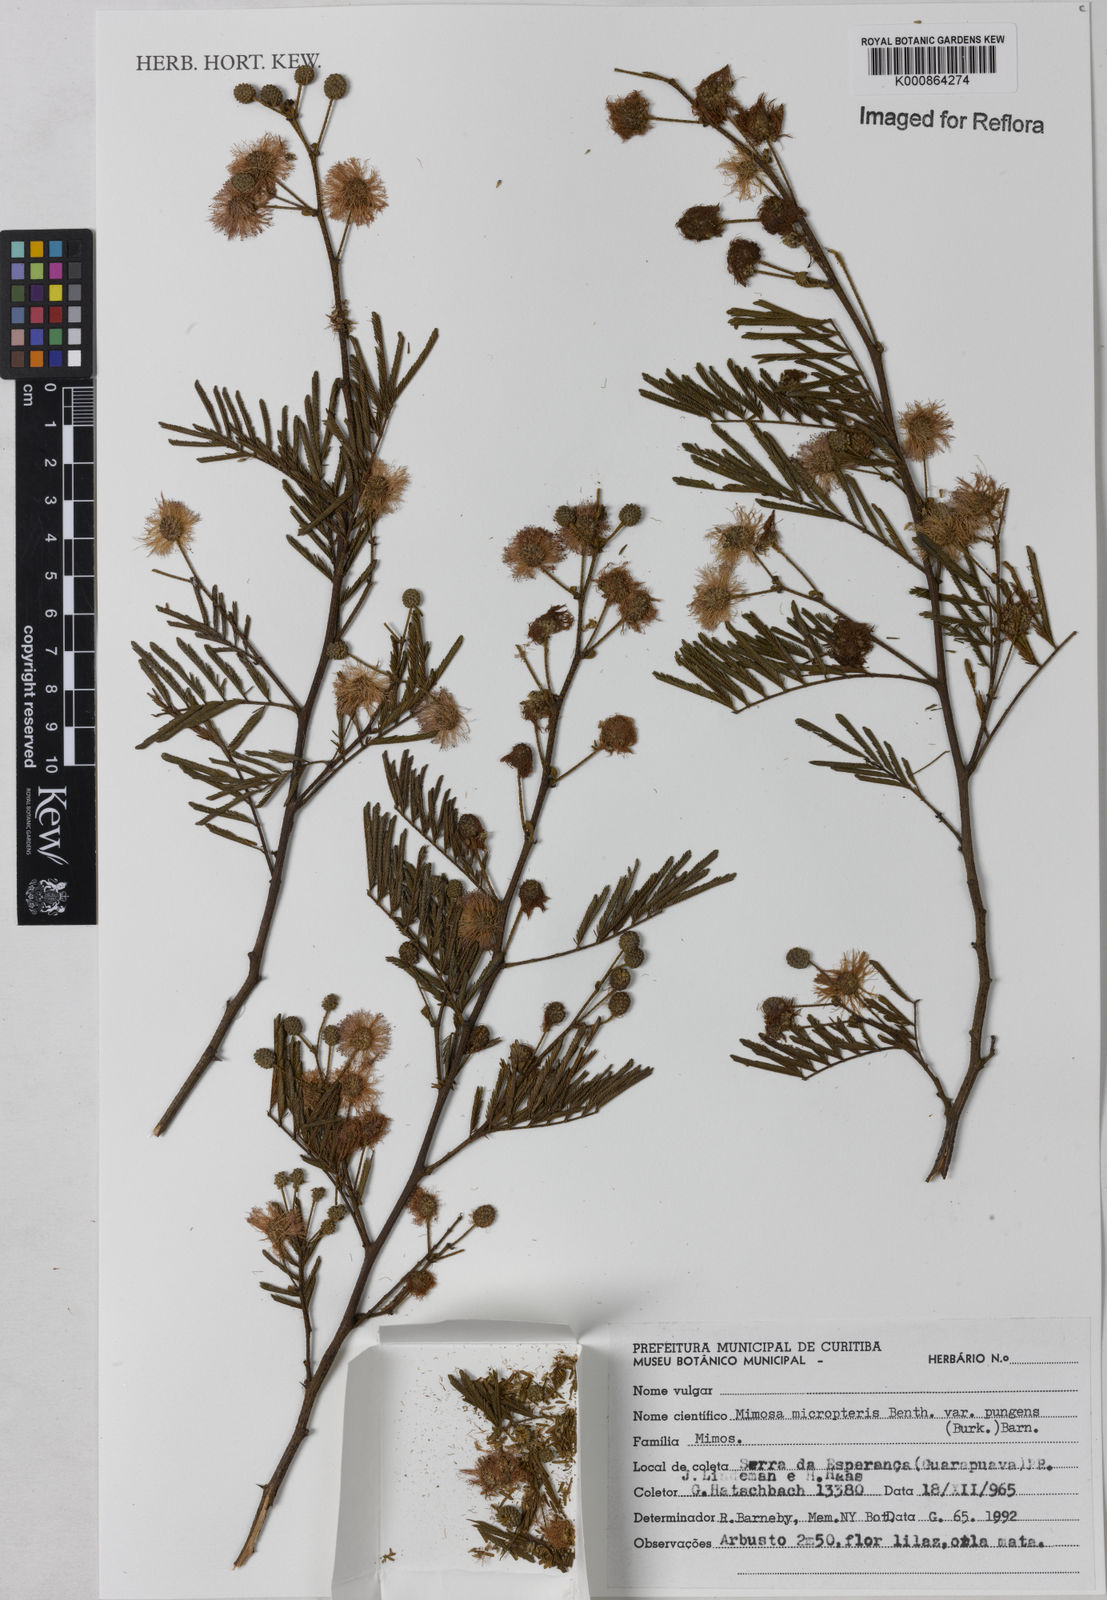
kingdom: Plantae
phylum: Tracheophyta
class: Magnoliopsida
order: Fabales
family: Fabaceae
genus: Mimosa
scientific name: Mimosa micropteris
